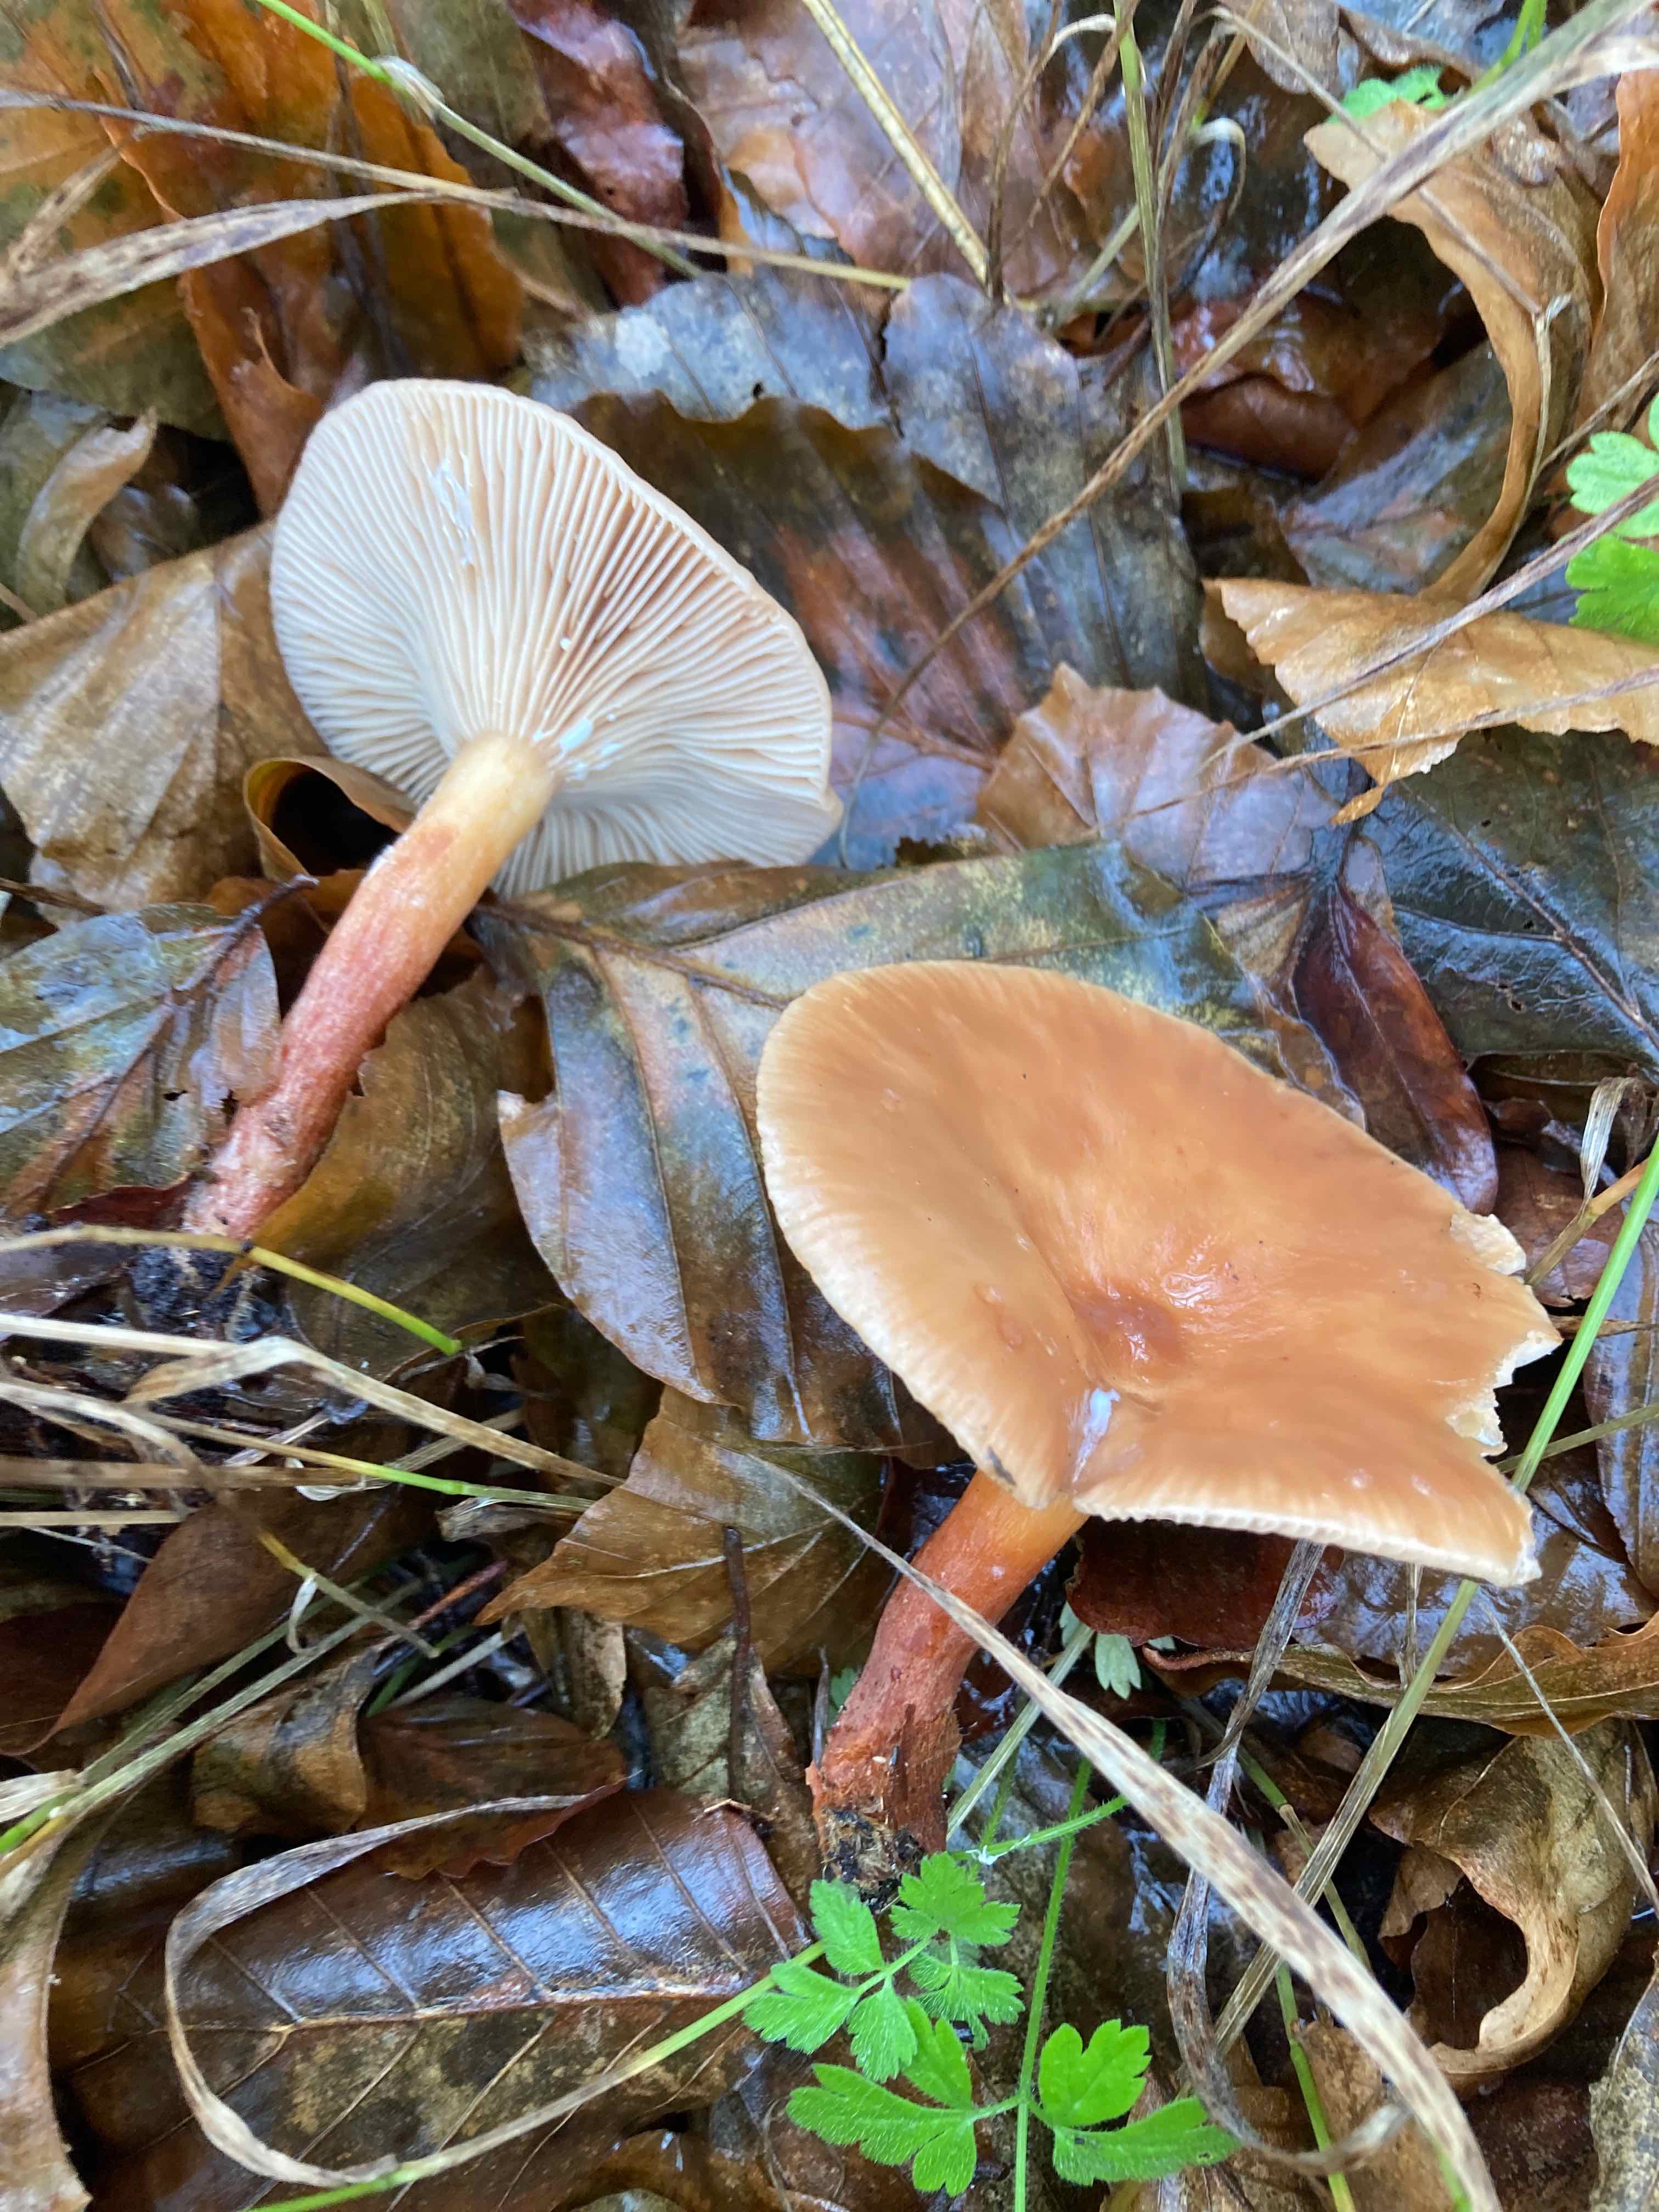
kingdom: Fungi
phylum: Basidiomycota
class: Agaricomycetes
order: Russulales
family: Russulaceae
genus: Lactarius
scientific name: Lactarius subdulcis
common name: sødlig mælkehat
